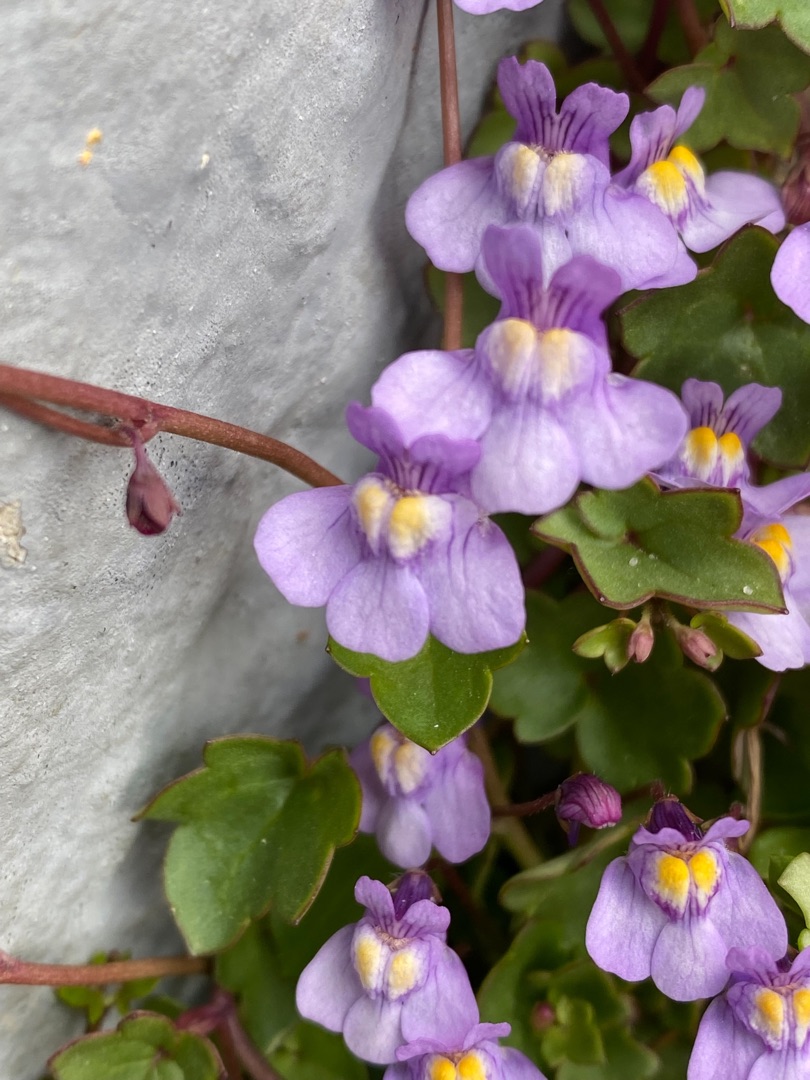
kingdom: Plantae
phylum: Tracheophyta
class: Magnoliopsida
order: Lamiales
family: Plantaginaceae
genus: Cymbalaria
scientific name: Cymbalaria muralis
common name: Vedbend-torskemund
